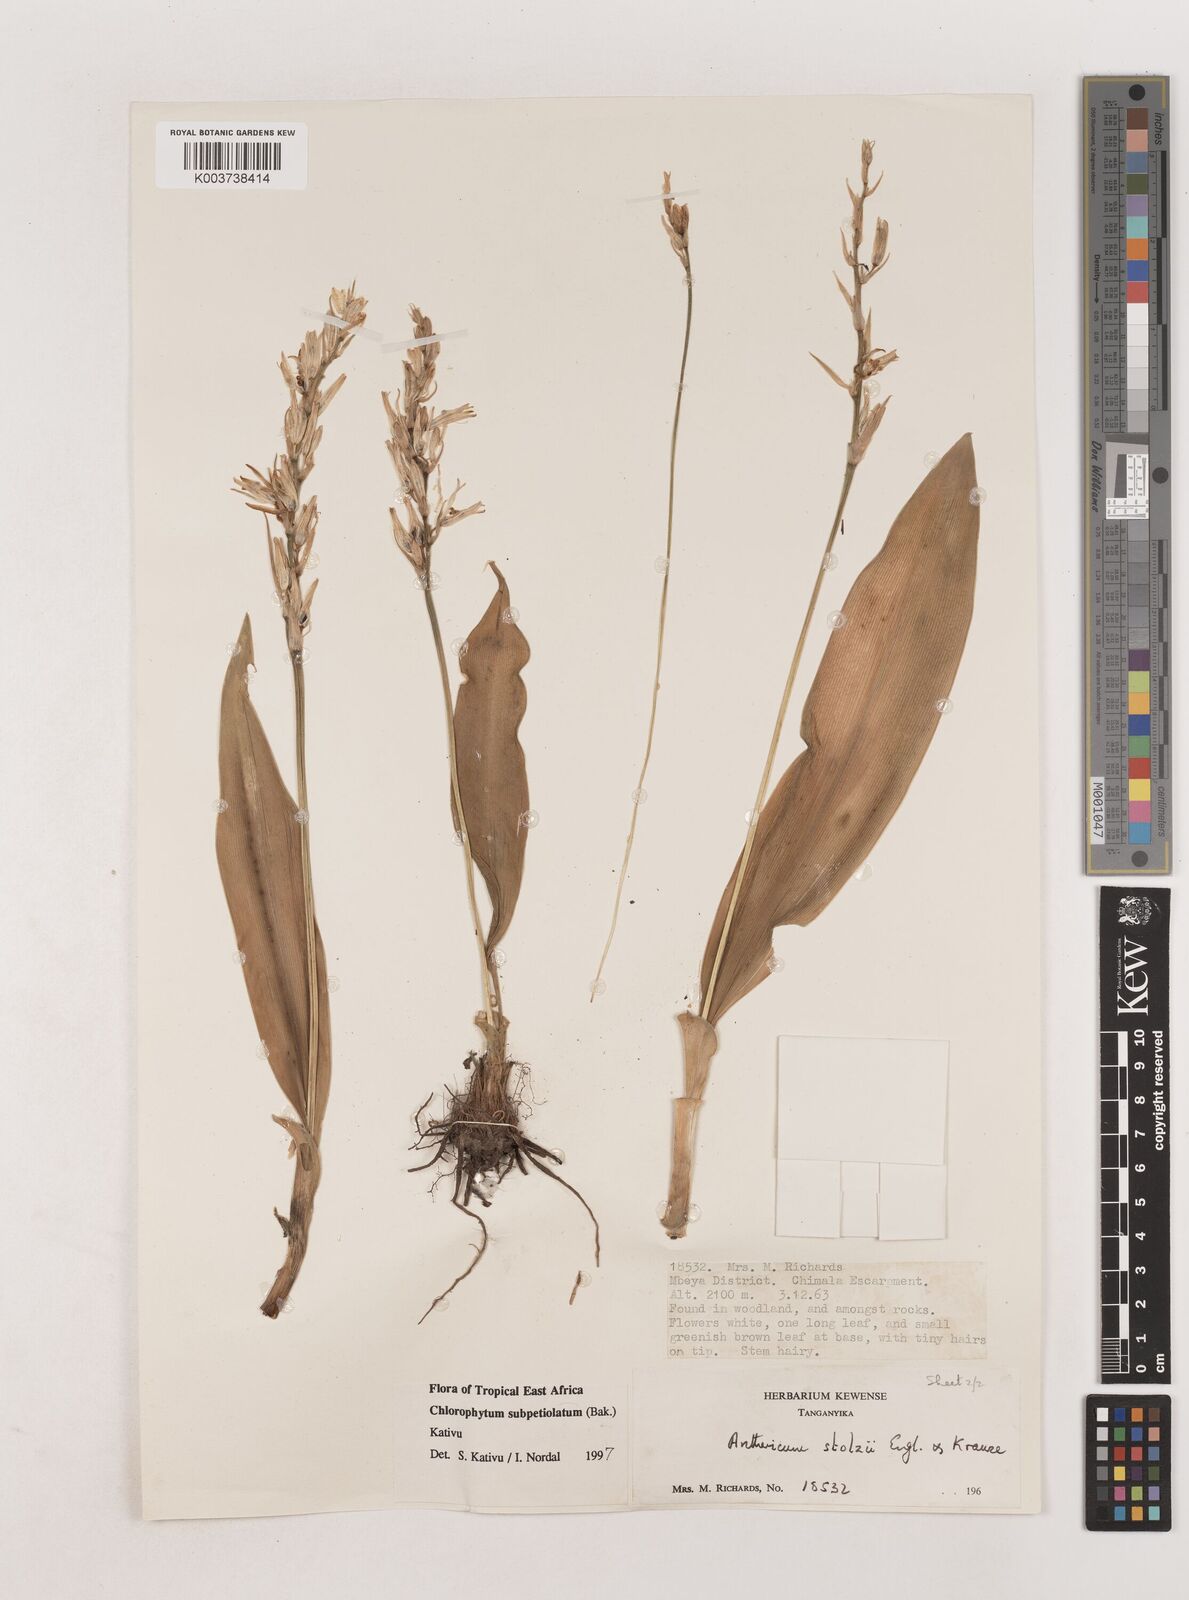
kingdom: Plantae
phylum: Tracheophyta
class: Liliopsida
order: Asparagales
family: Asparagaceae
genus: Chlorophytum
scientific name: Chlorophytum subpetiolatum
